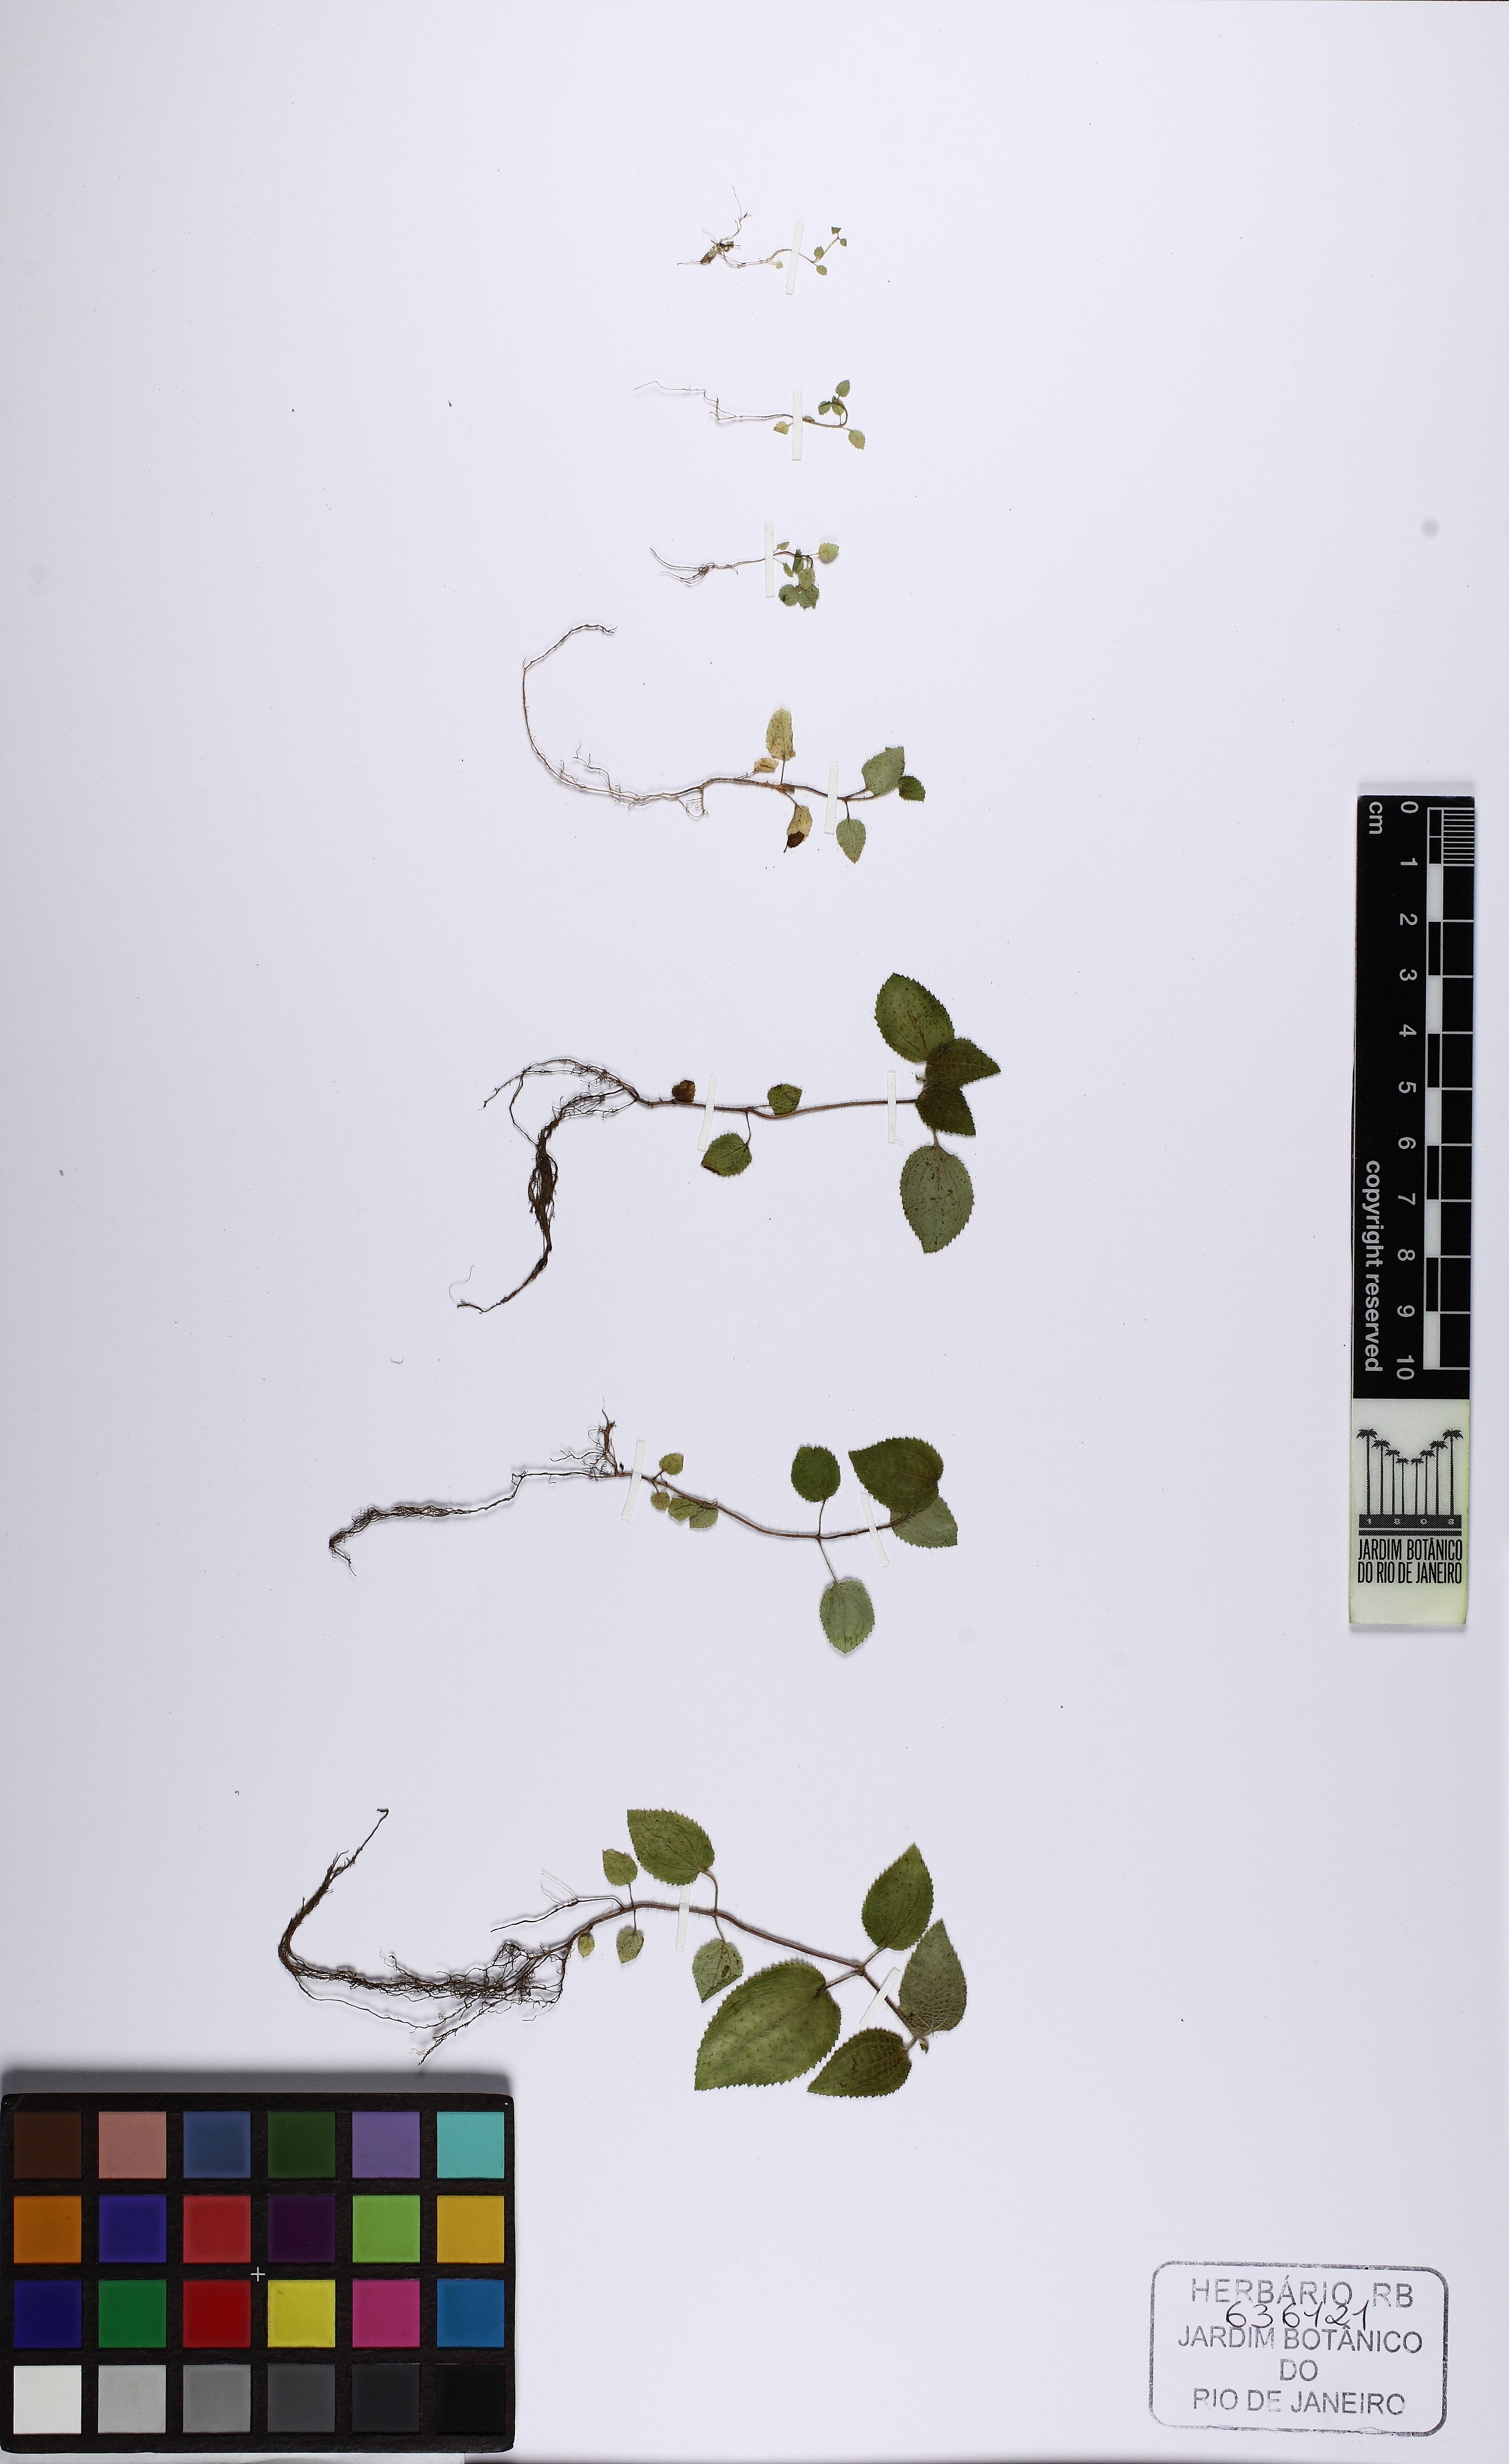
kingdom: Plantae
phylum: Tracheophyta
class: Magnoliopsida
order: Myrtales
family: Melastomataceae
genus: Miconia
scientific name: Miconia dependens
